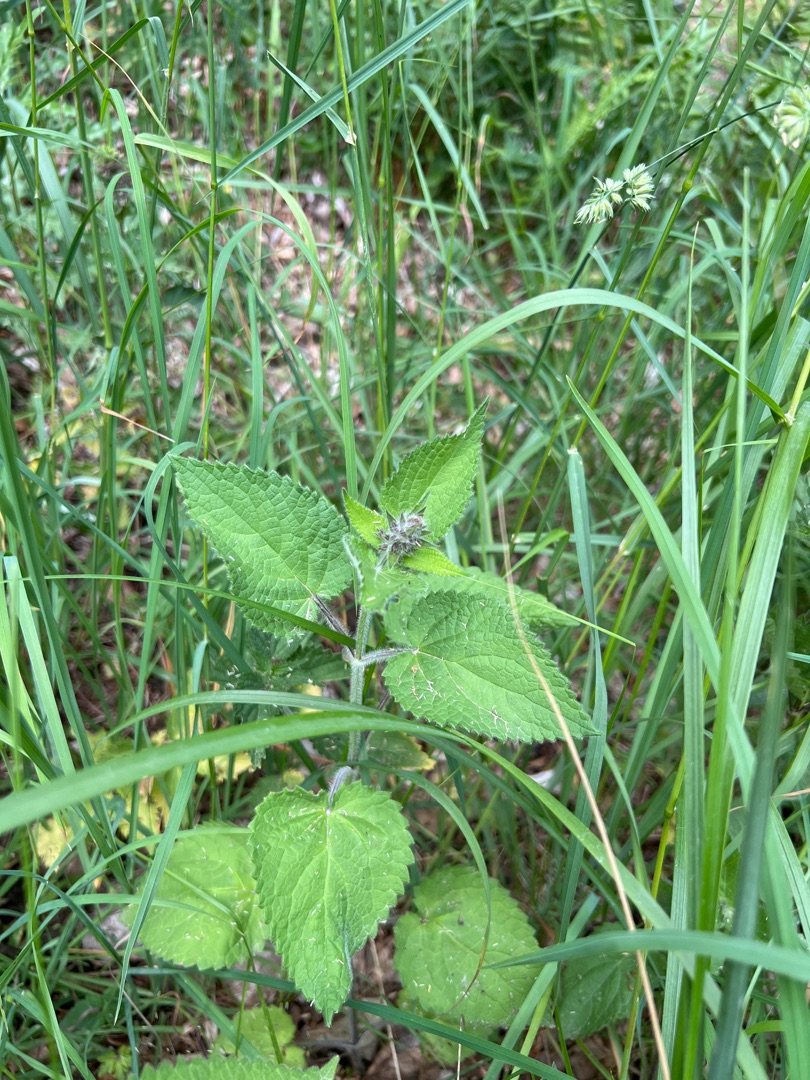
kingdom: Plantae
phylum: Tracheophyta
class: Magnoliopsida
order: Lamiales
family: Lamiaceae
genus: Stachys
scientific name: Stachys sylvatica
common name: Skov-galtetand
